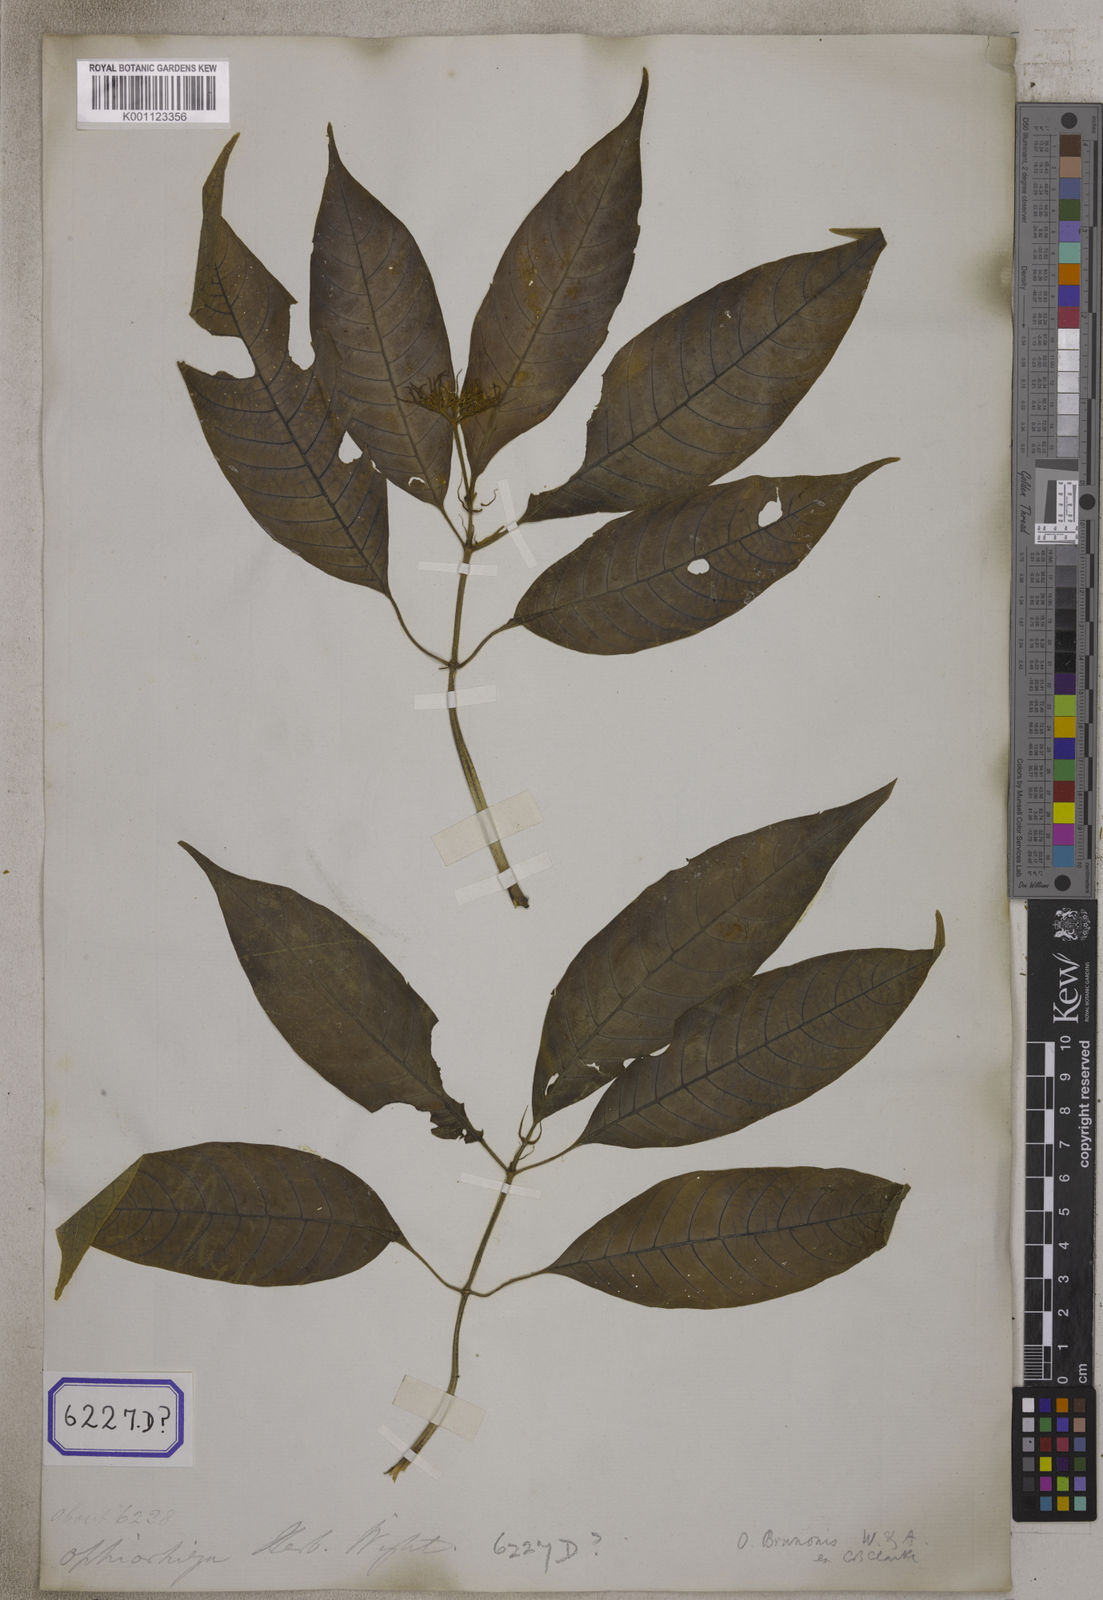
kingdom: Plantae
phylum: Tracheophyta
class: Magnoliopsida
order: Gentianales
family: Rubiaceae
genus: Ophiorrhiza
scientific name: Ophiorrhiza mungos
